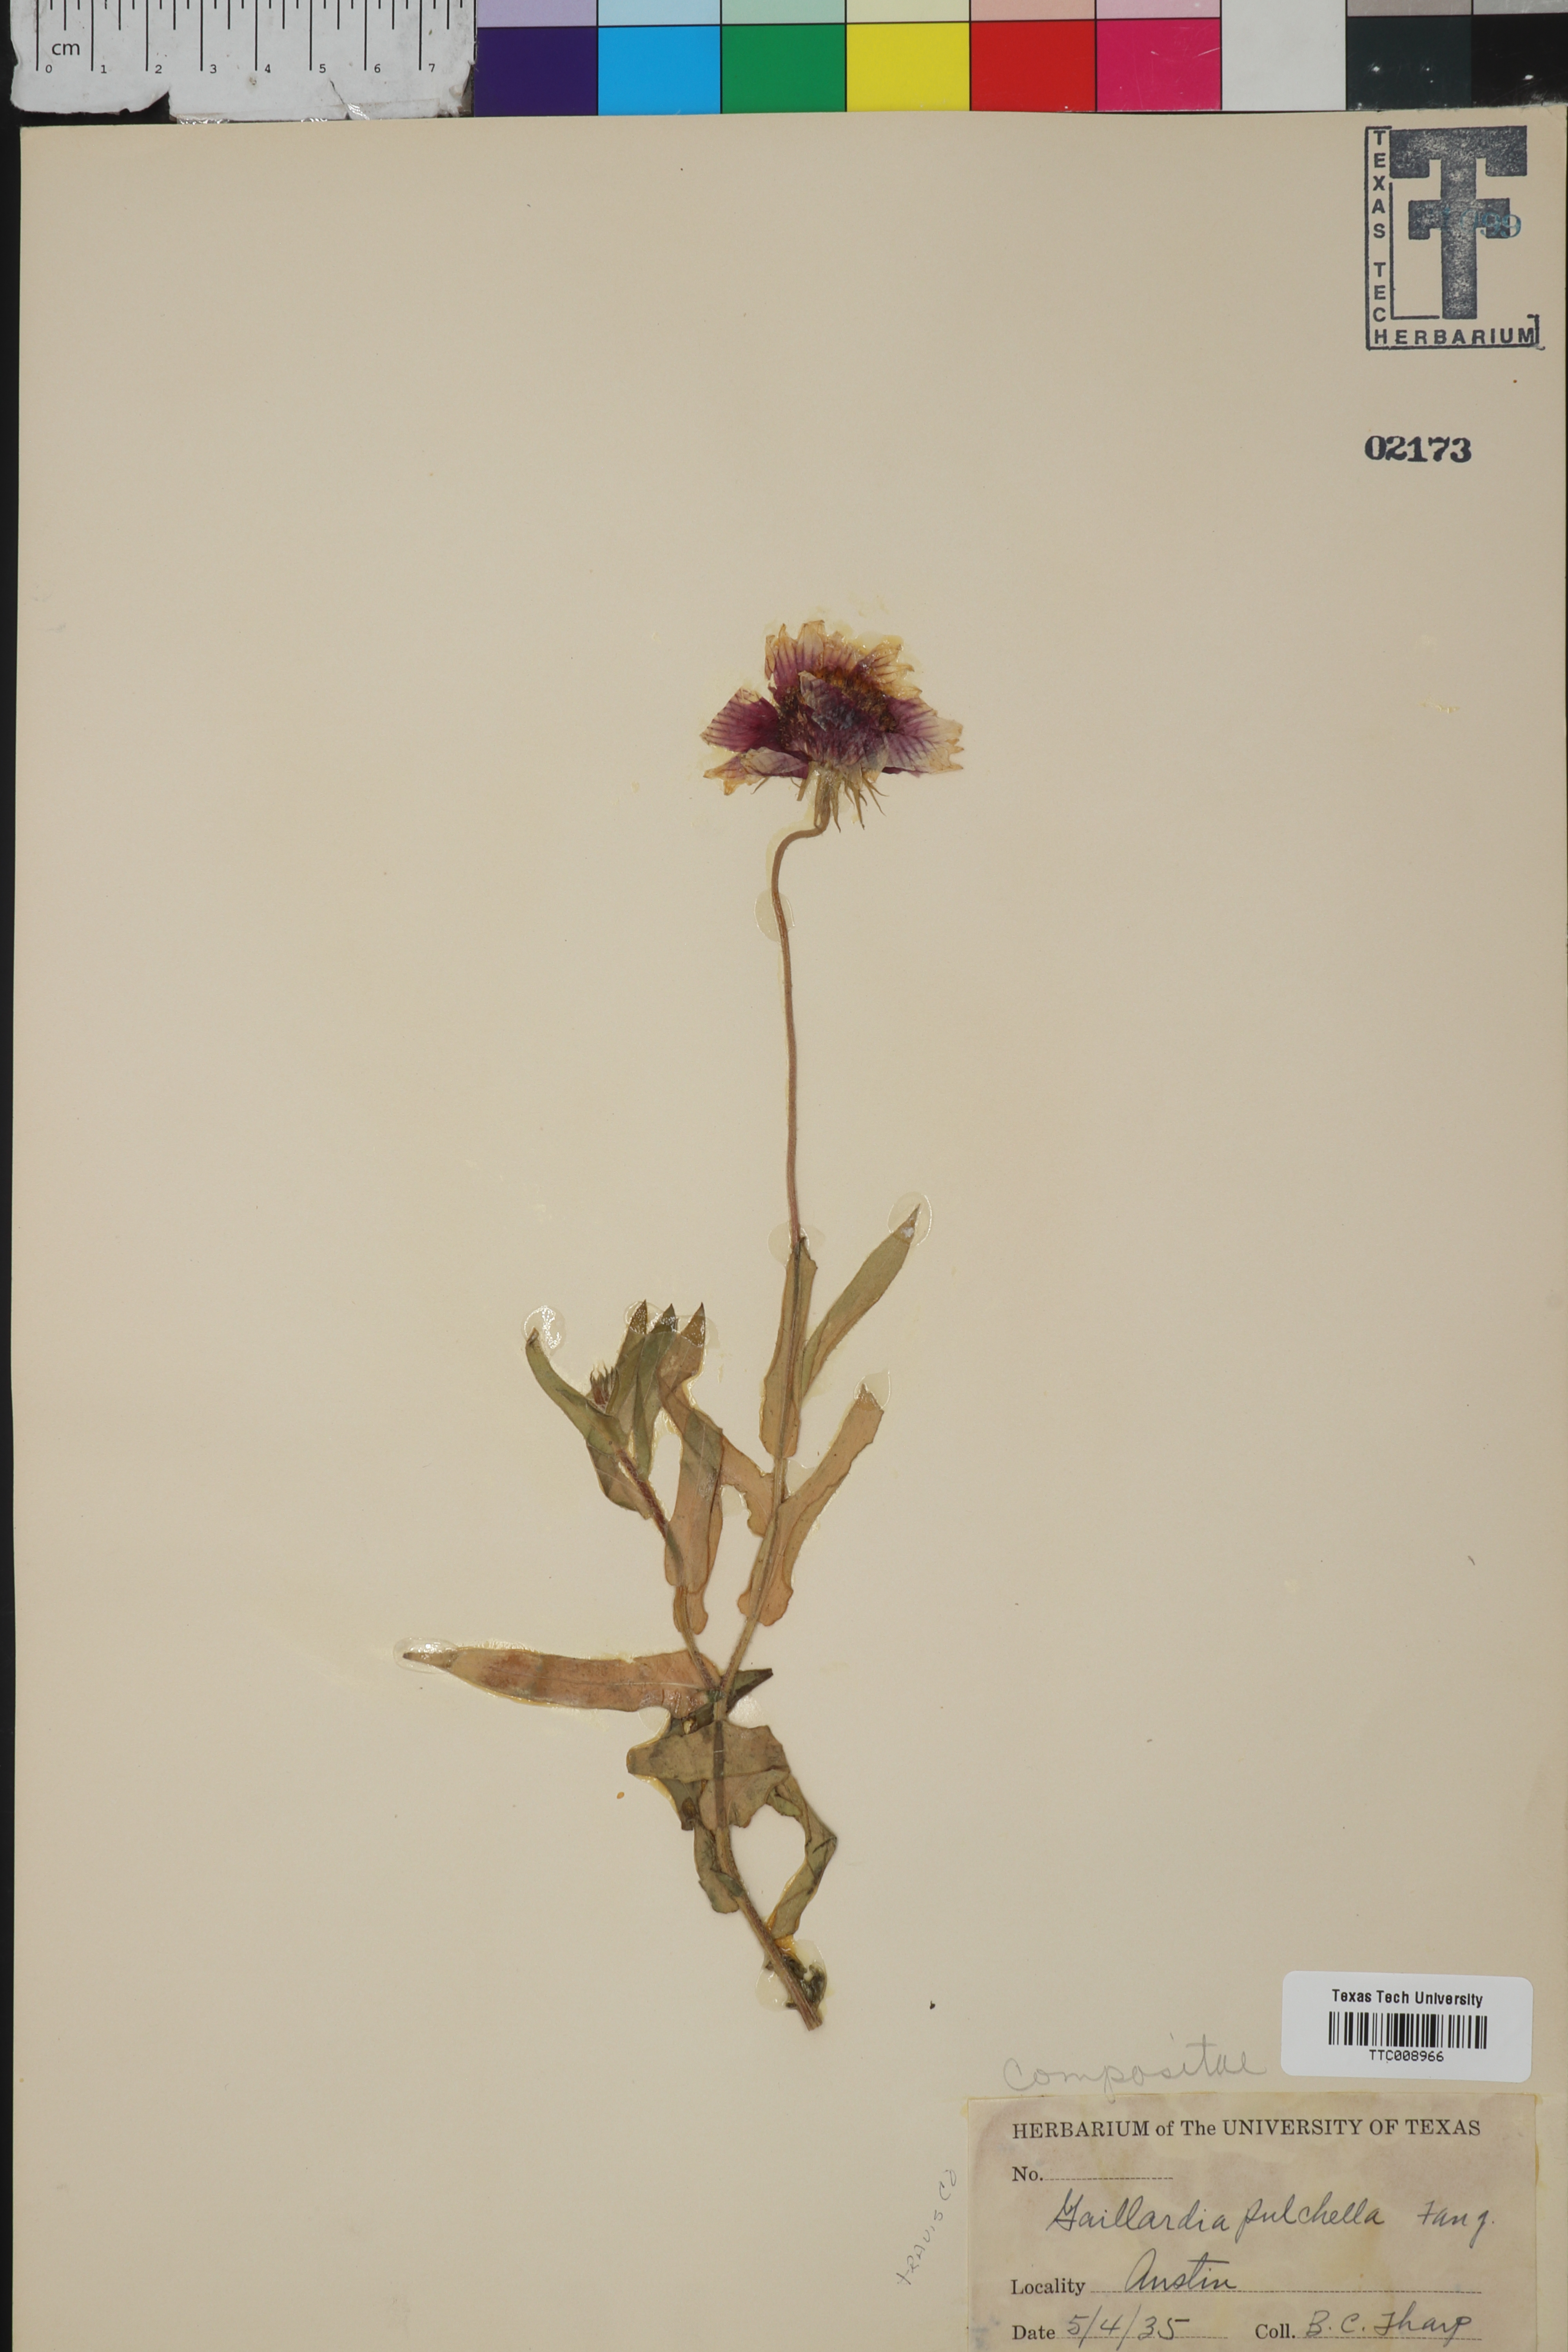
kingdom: Plantae
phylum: Tracheophyta
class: Magnoliopsida
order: Asterales
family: Asteraceae
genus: Gaillardia
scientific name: Gaillardia pulchella
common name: Firewheel
